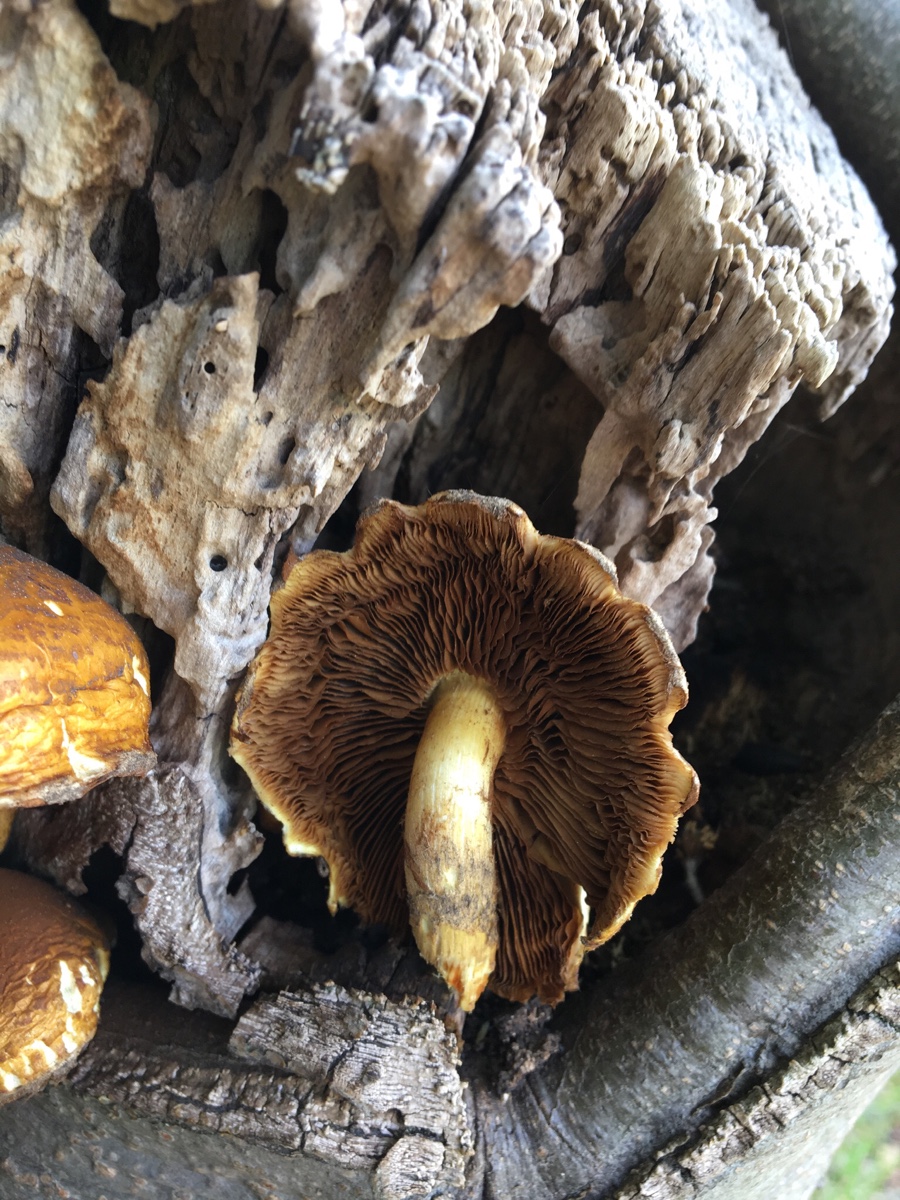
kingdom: Fungi
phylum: Basidiomycota
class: Agaricomycetes
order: Agaricales
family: Strophariaceae
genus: Pholiota
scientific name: Pholiota adiposa
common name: højtsiddende skælhat
